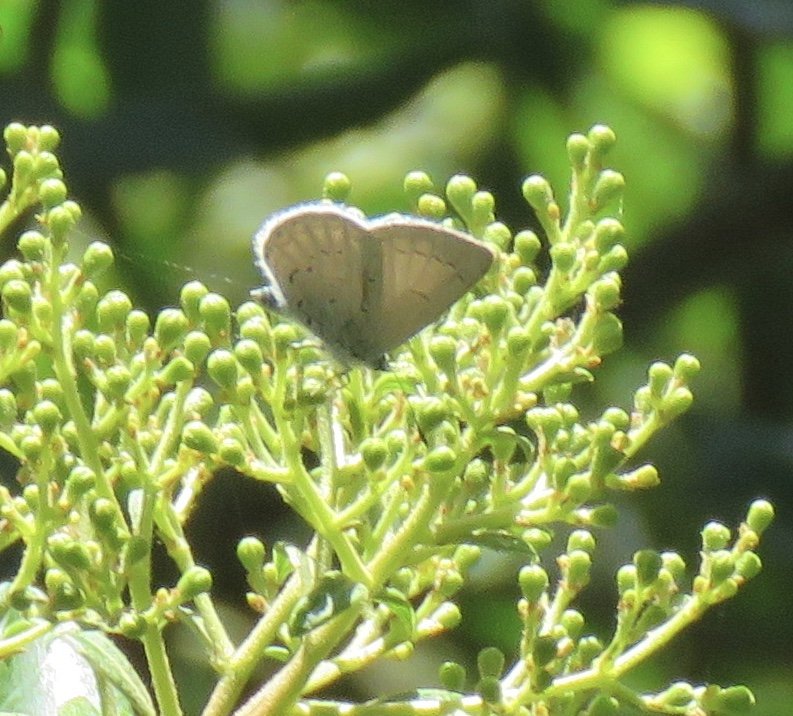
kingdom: Animalia
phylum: Arthropoda
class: Insecta
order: Lepidoptera
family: Lycaenidae
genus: Celastrina
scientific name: Celastrina ladon
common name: Echo Azure
